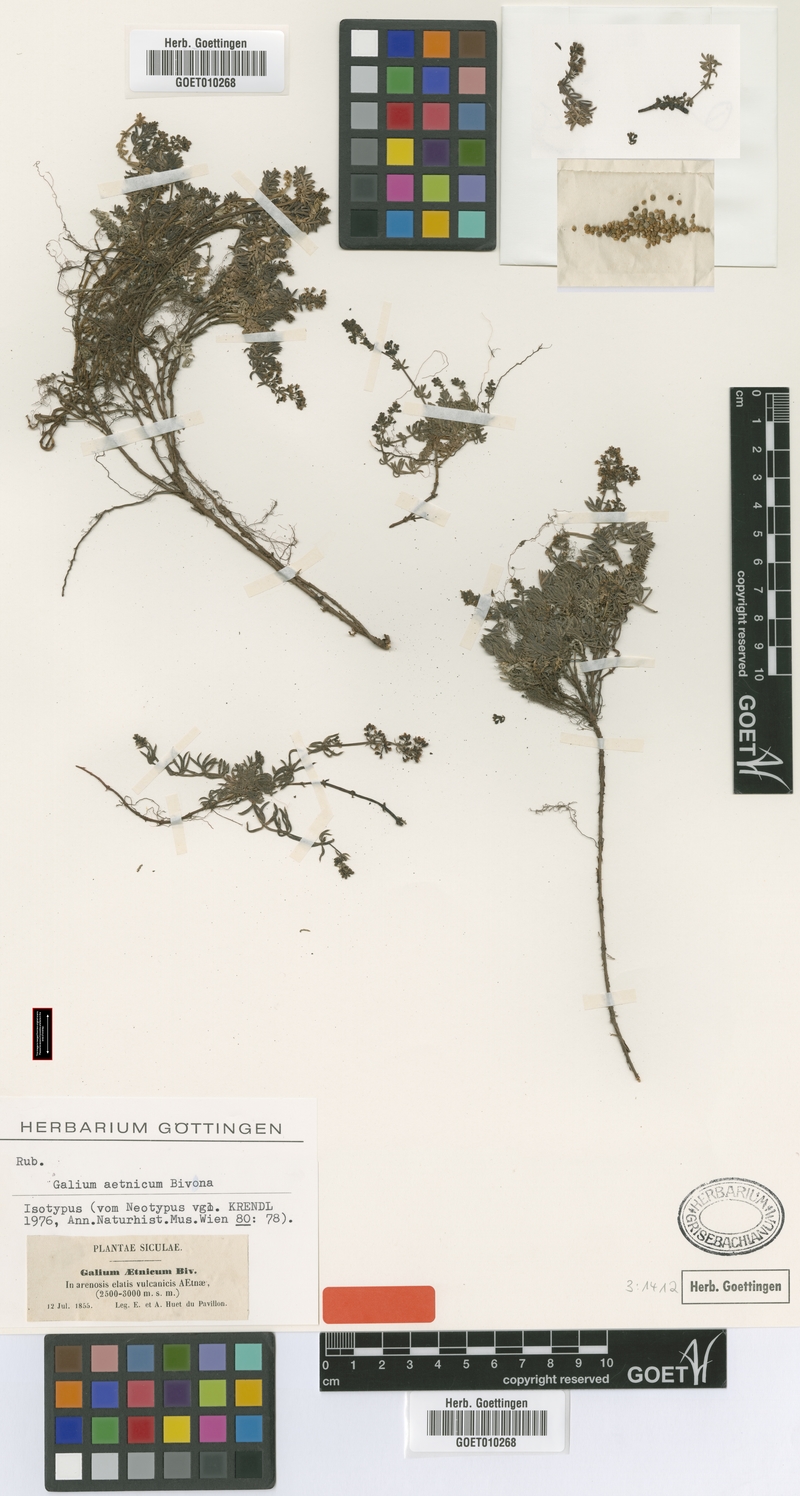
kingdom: Plantae
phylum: Tracheophyta
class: Magnoliopsida
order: Gentianales
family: Rubiaceae
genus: Galium
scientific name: Galium aetnicum
